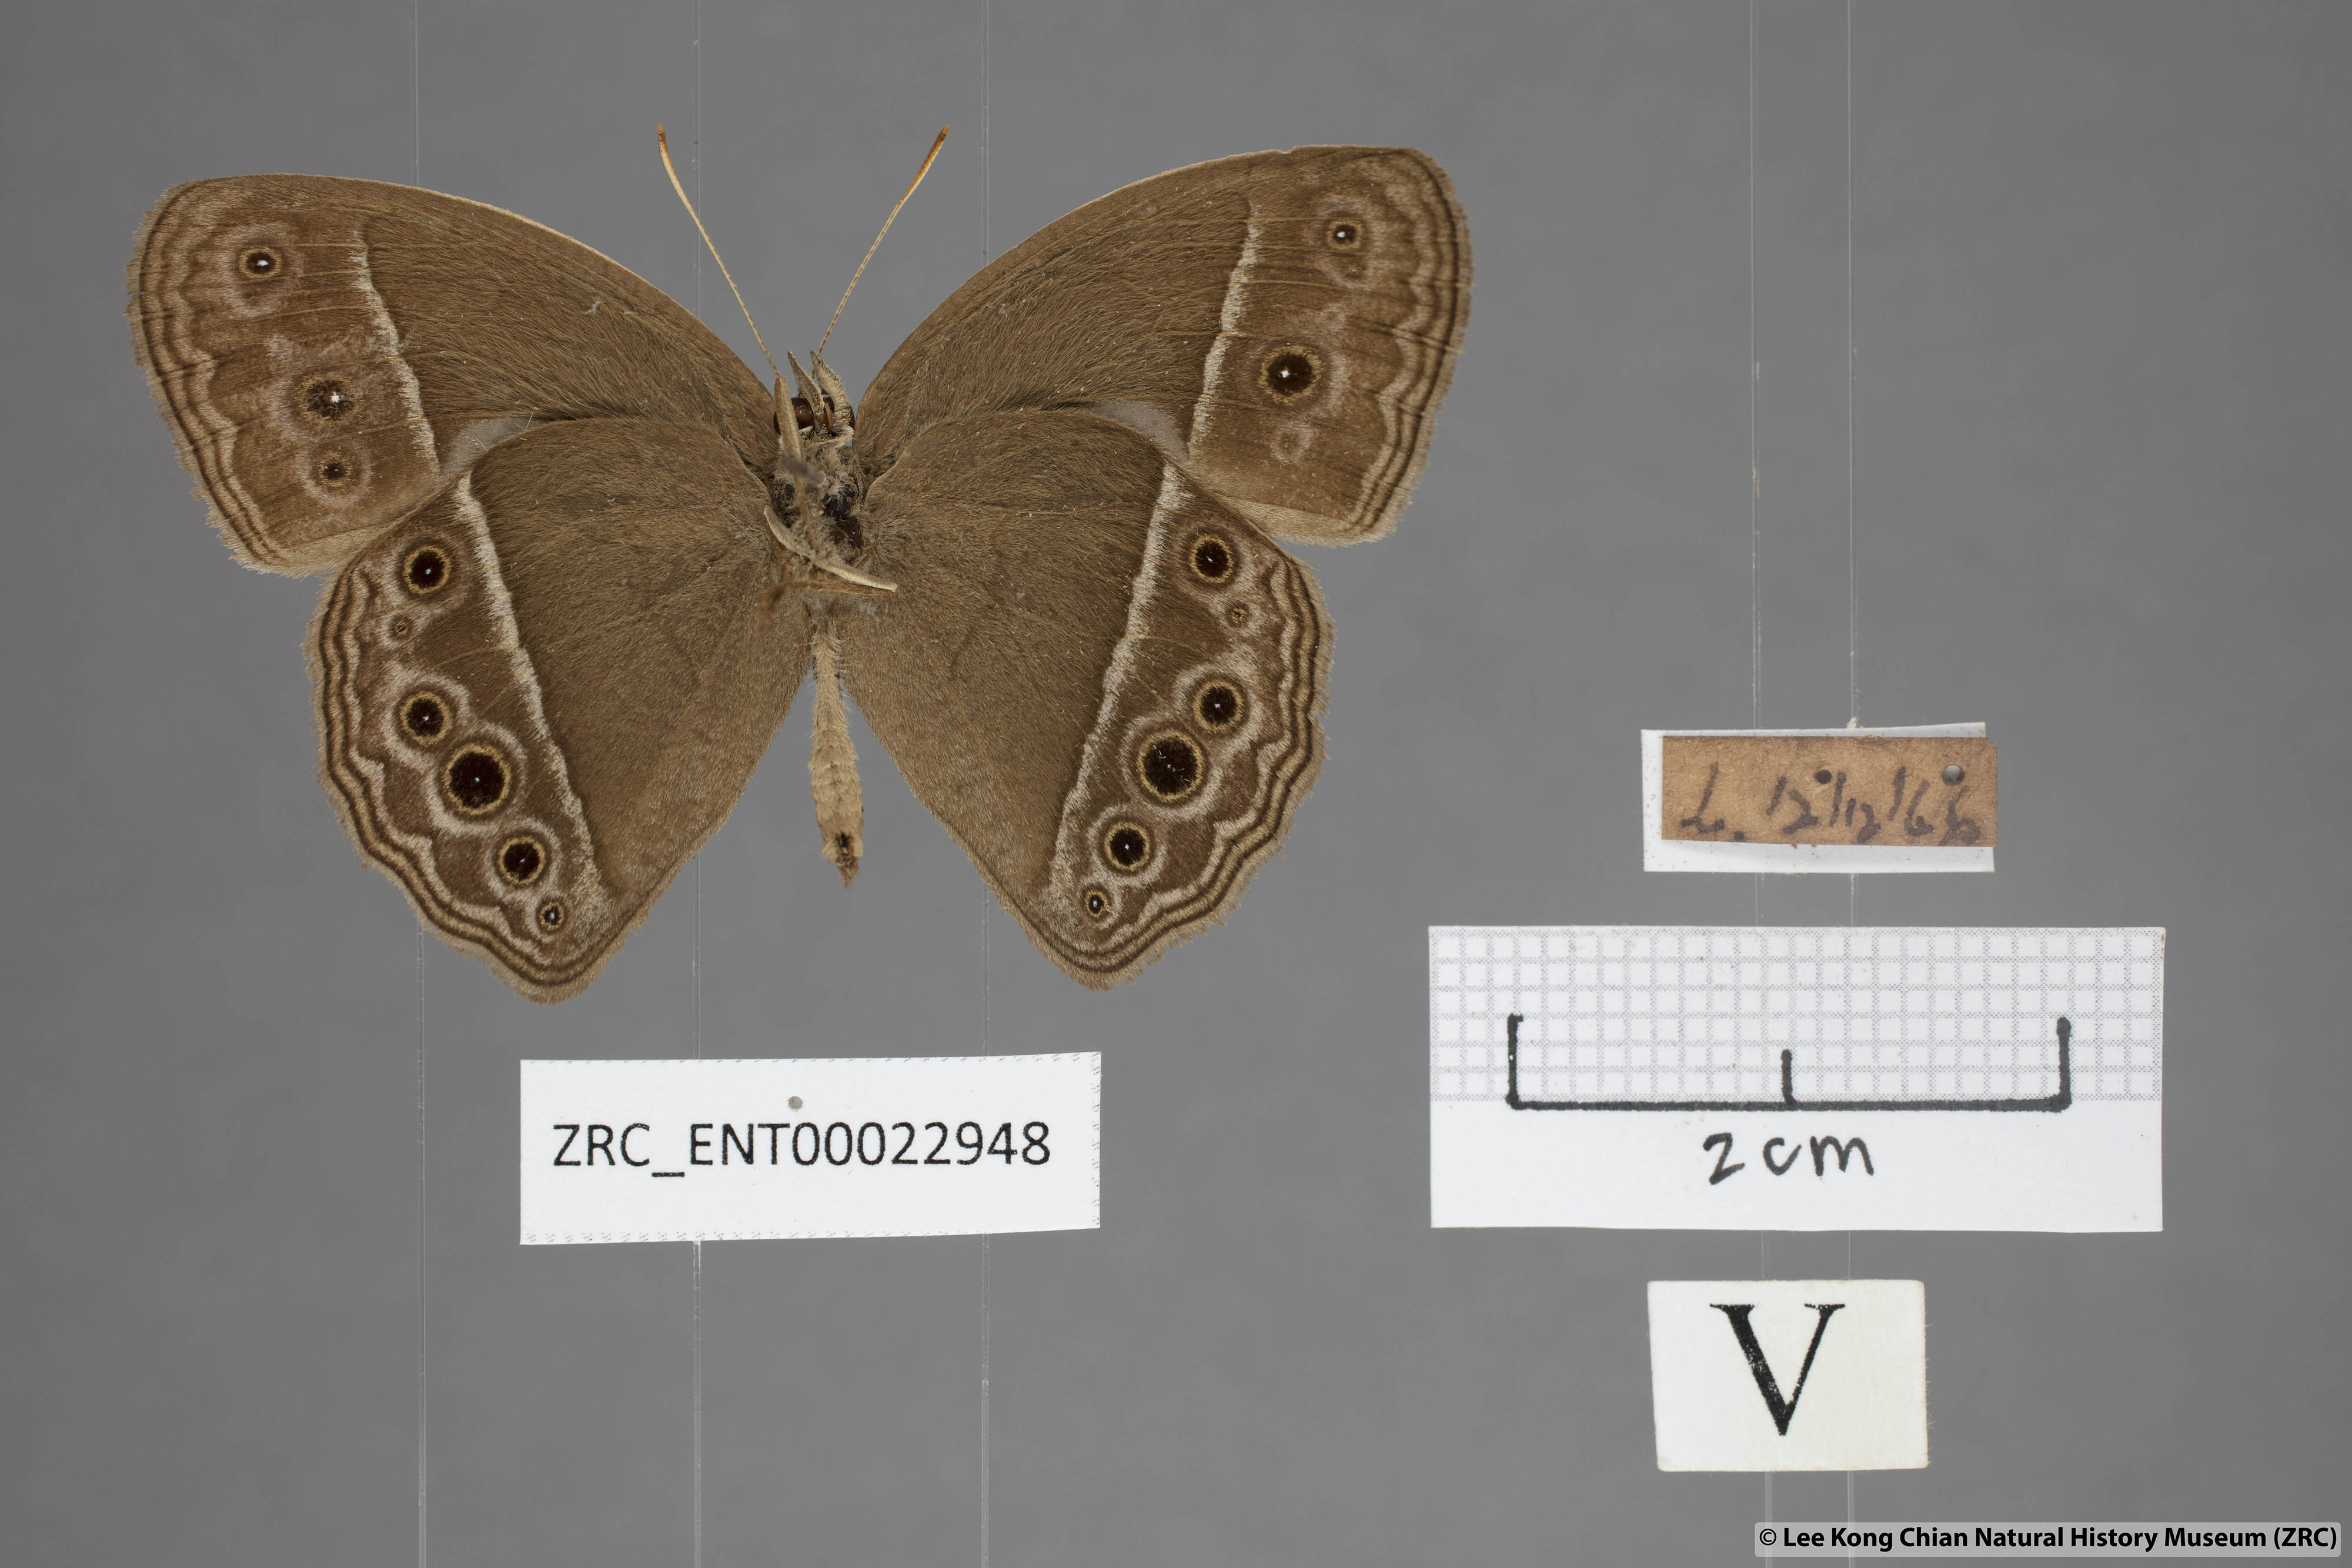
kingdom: Animalia
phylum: Arthropoda
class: Insecta
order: Lepidoptera
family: Nymphalidae
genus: Mycalesis
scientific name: Mycalesis mineus
